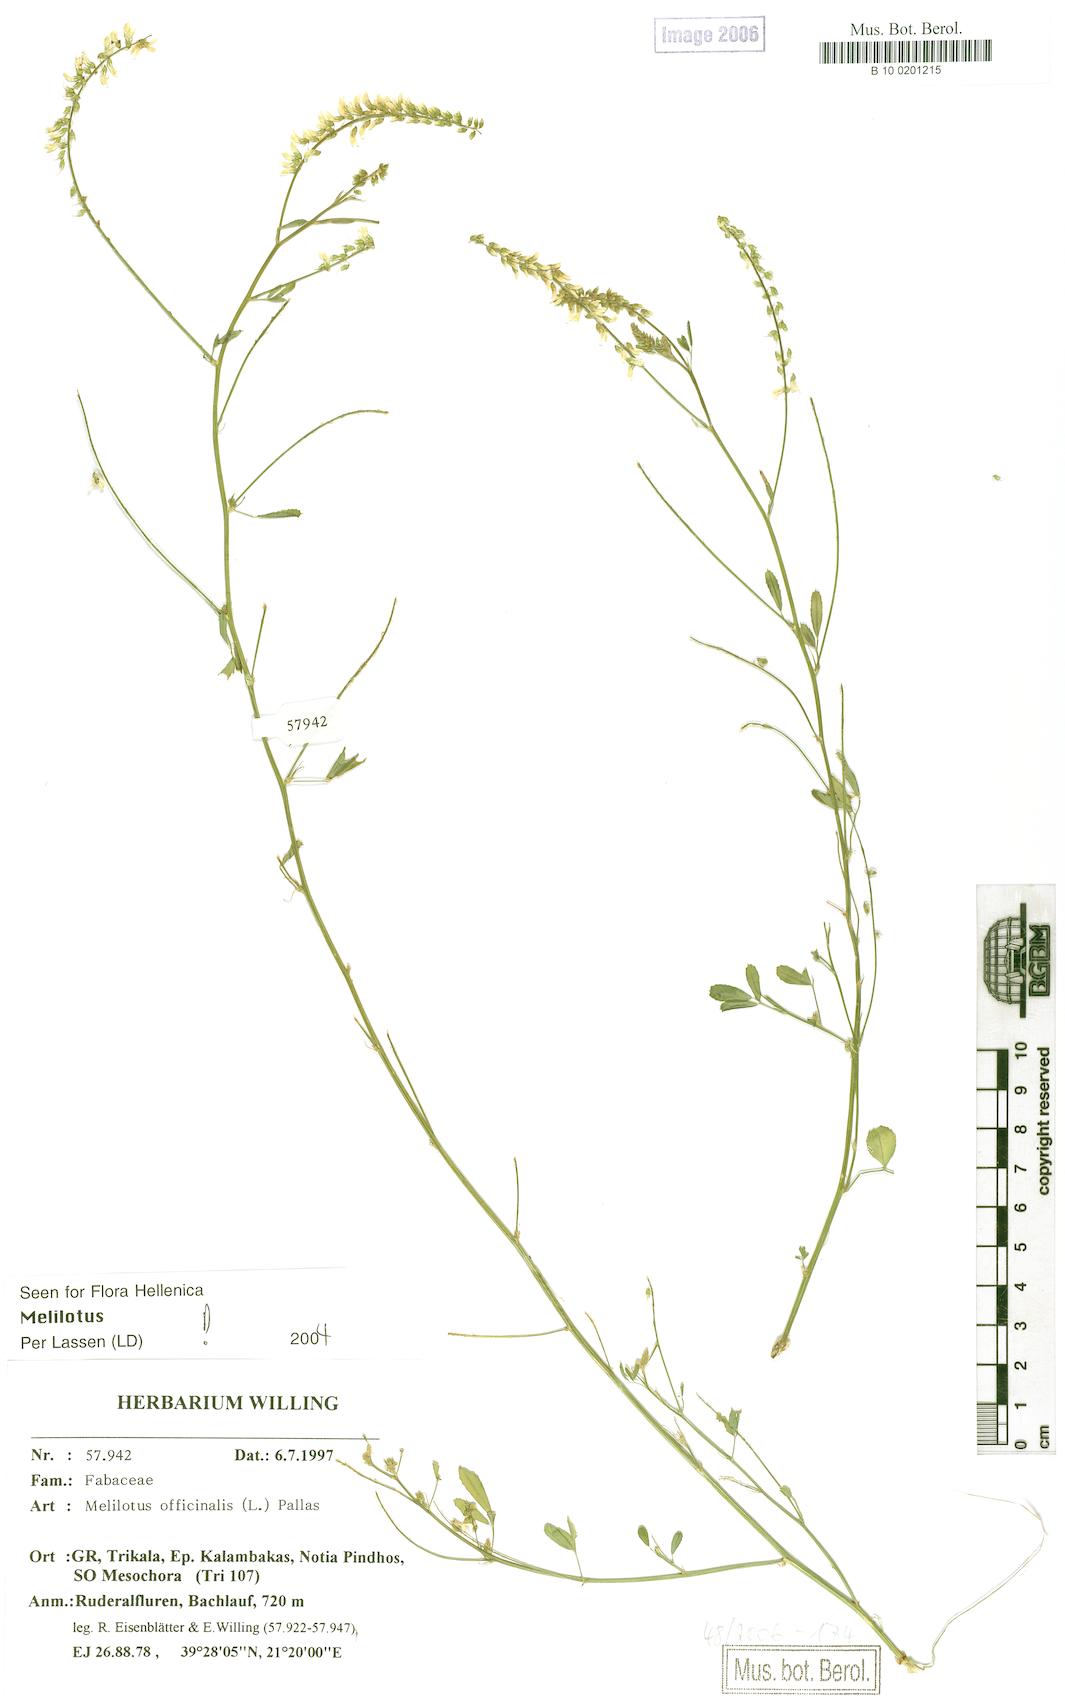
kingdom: Plantae
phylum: Tracheophyta
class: Magnoliopsida
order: Fabales
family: Fabaceae
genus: Melilotus
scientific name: Melilotus officinalis
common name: Sweetclover
